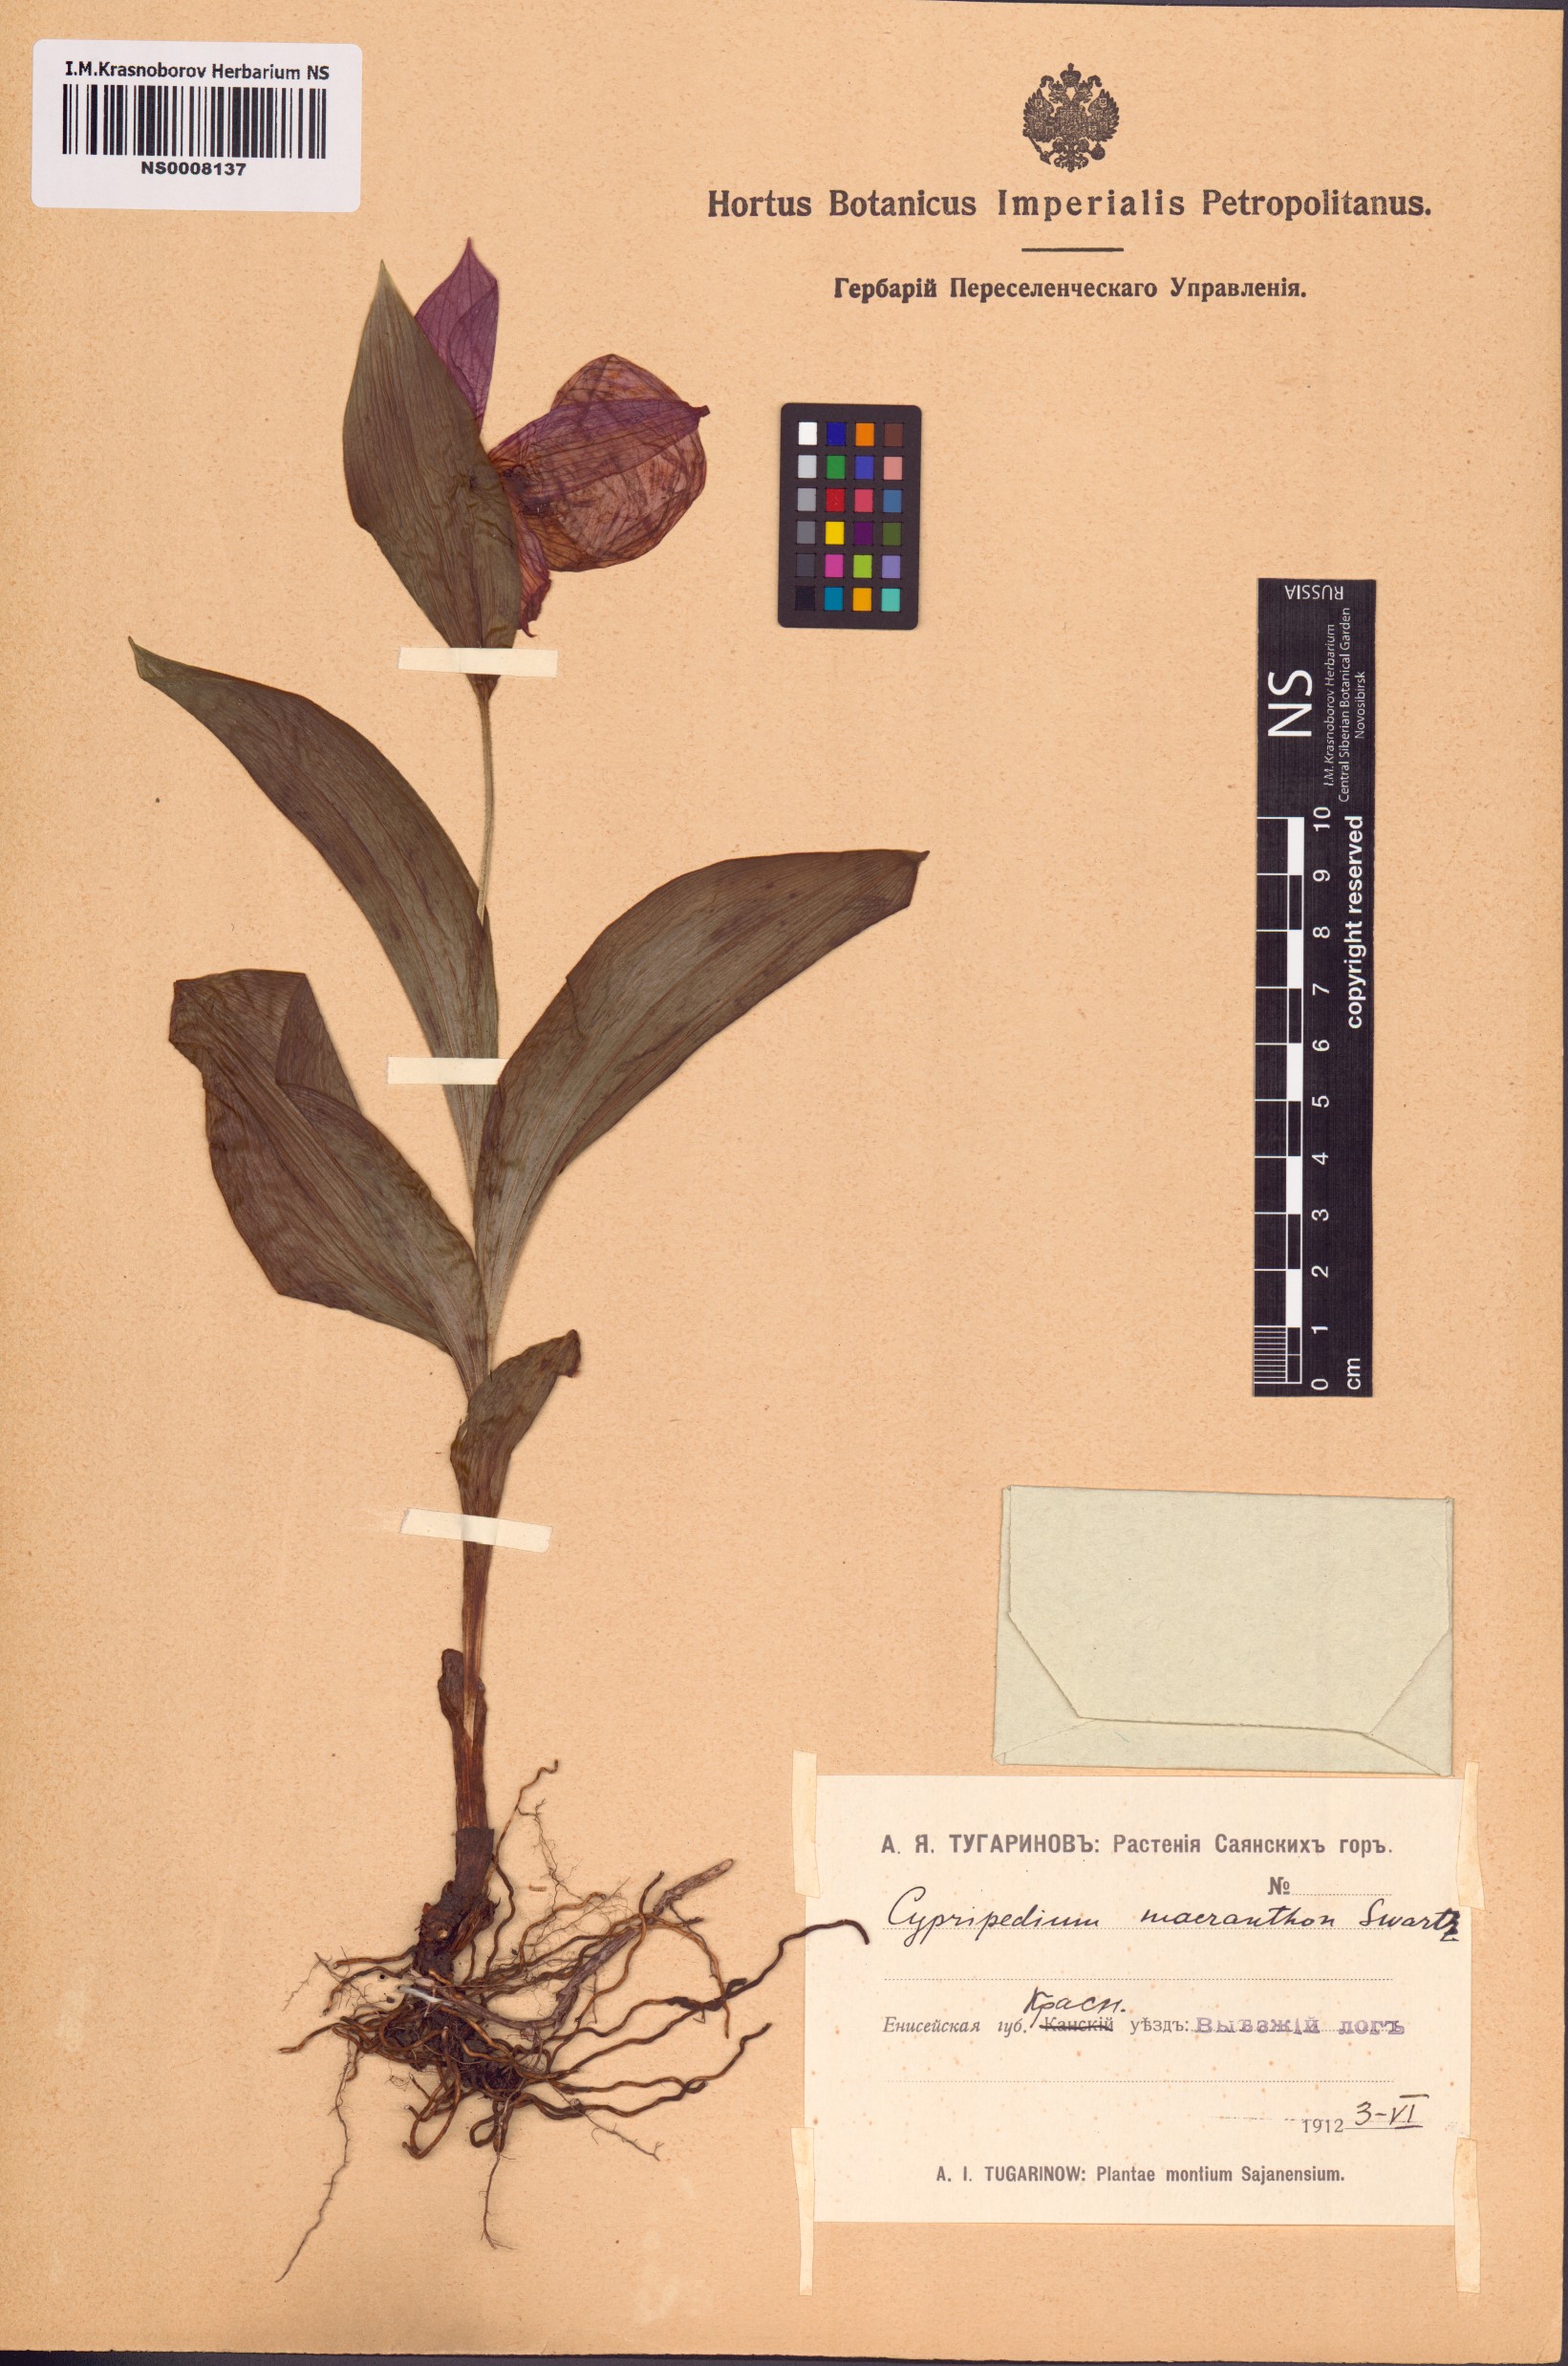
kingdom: Plantae
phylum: Tracheophyta
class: Liliopsida
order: Asparagales
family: Orchidaceae
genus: Cypripedium
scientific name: Cypripedium macranthos
